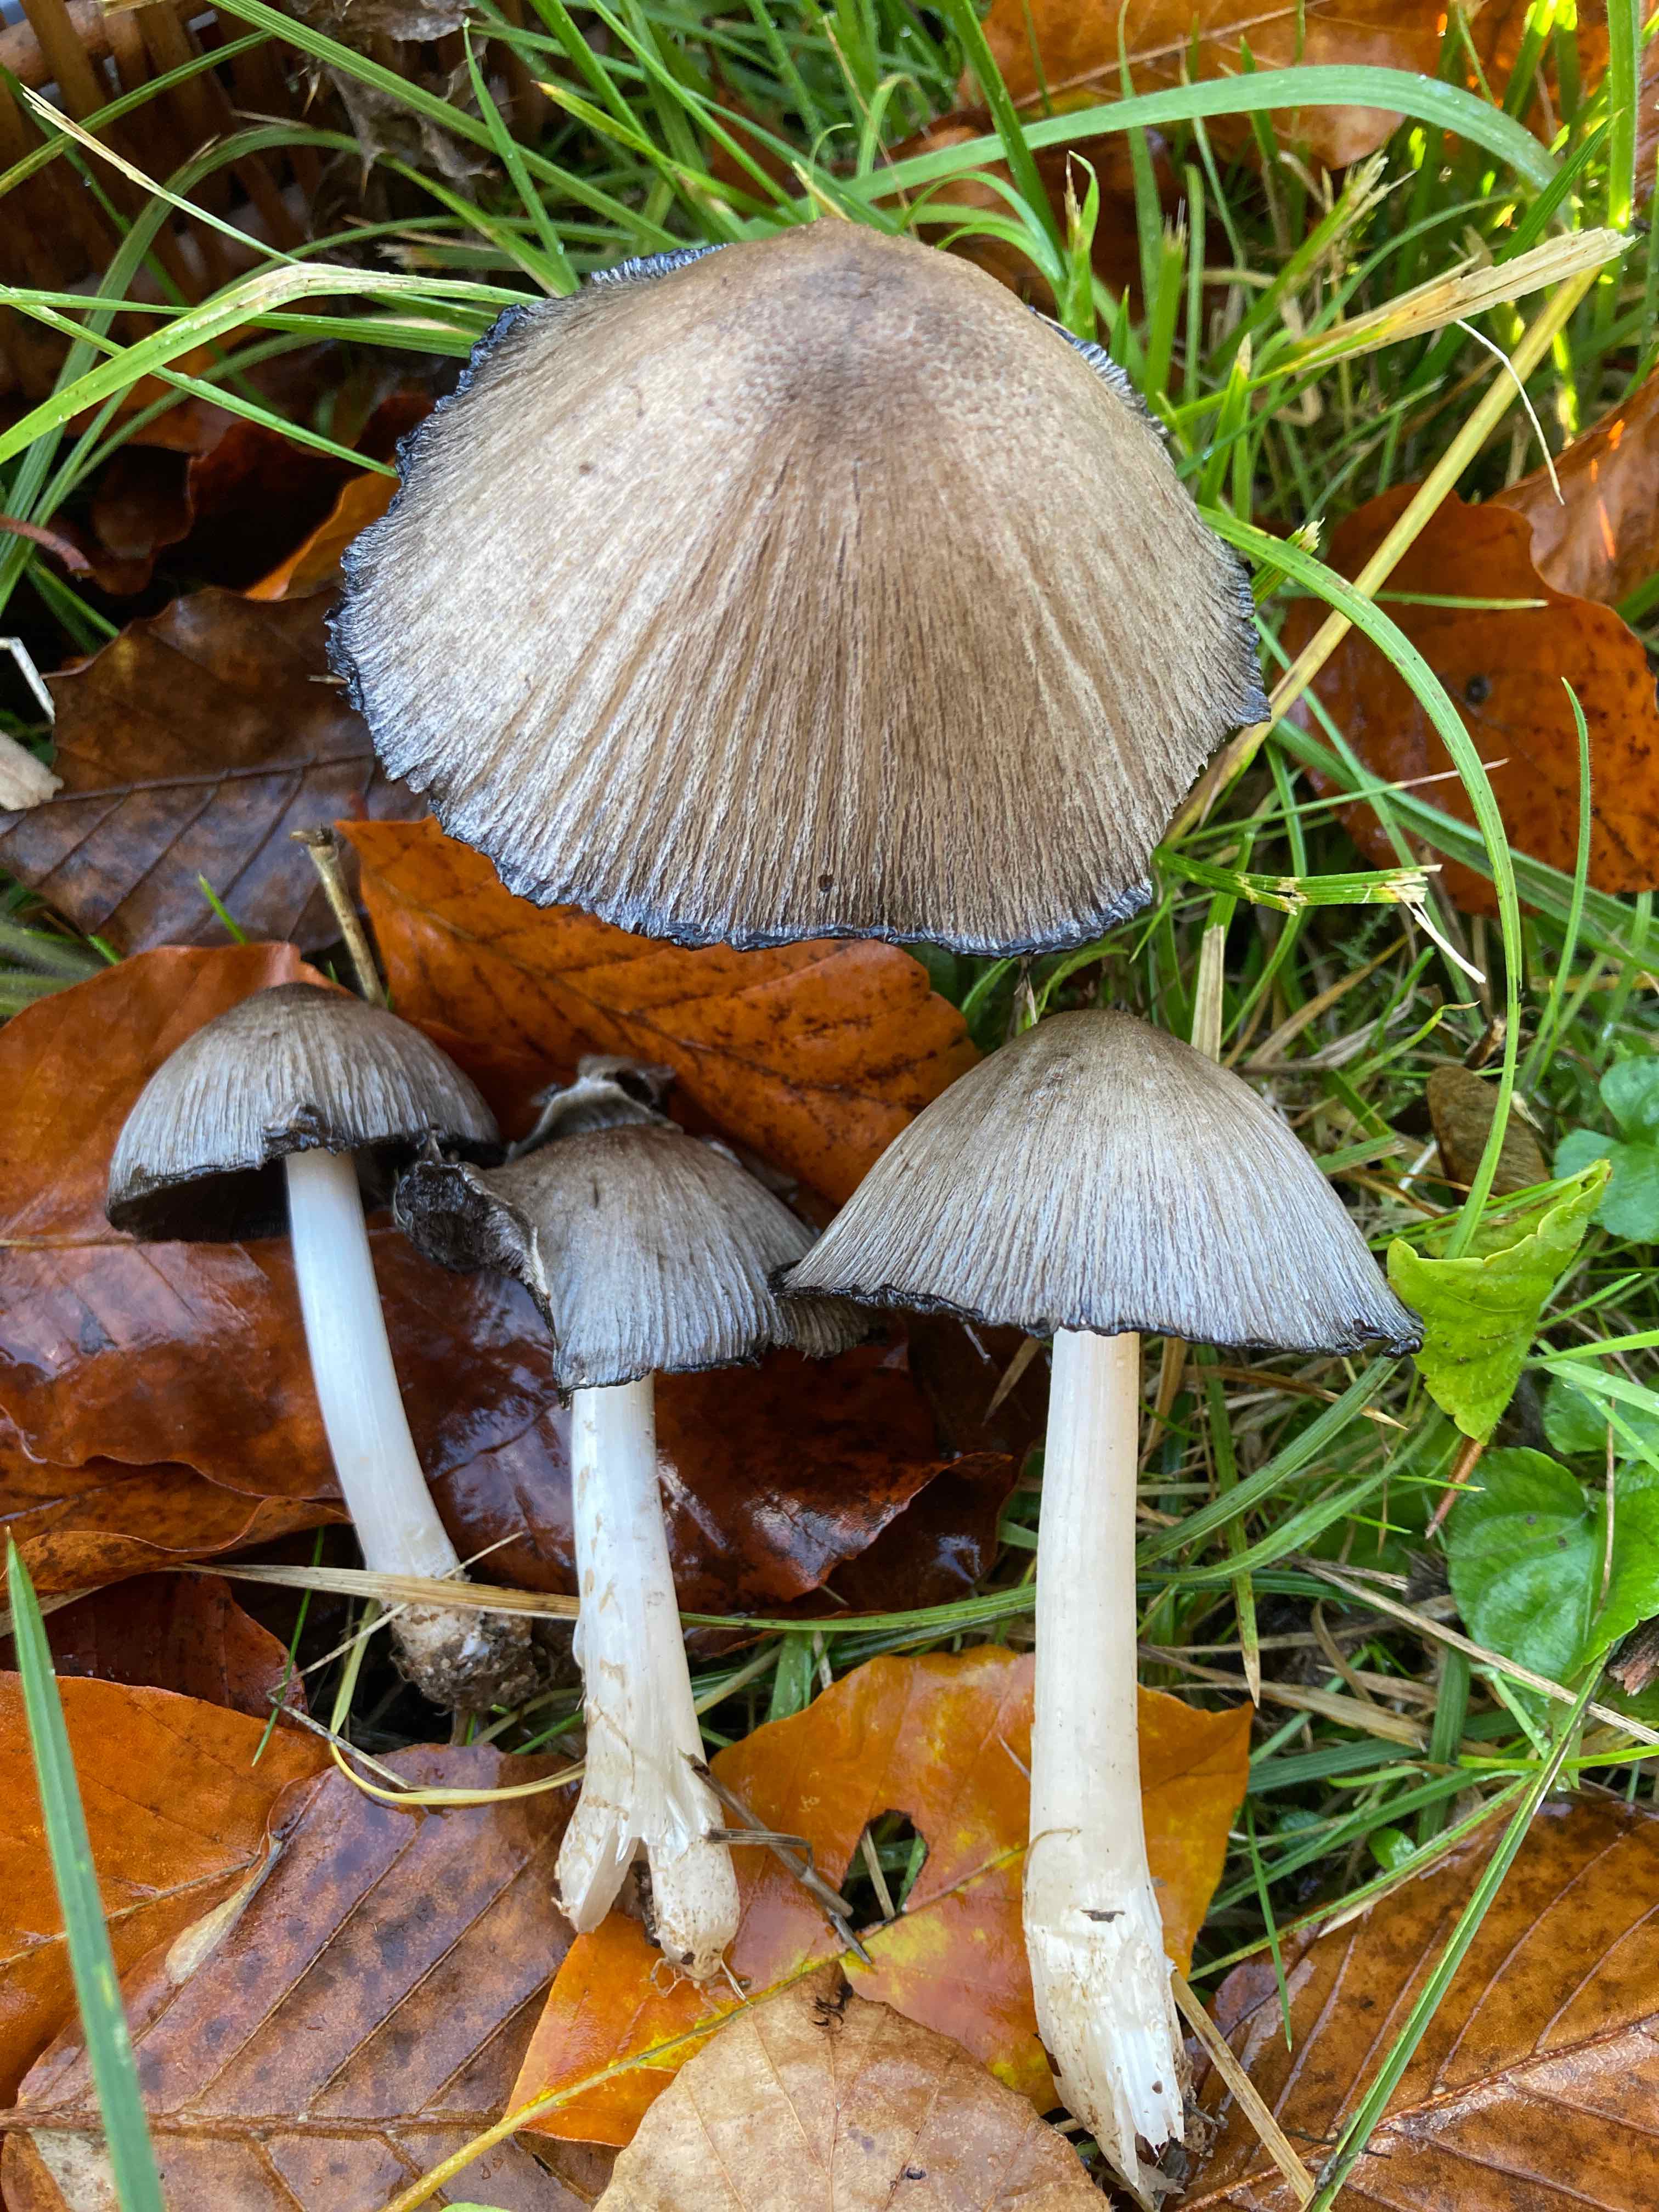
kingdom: Fungi
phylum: Basidiomycota
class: Agaricomycetes
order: Agaricales
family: Psathyrellaceae
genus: Coprinopsis
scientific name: Coprinopsis atramentaria
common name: almindelig blækhat
